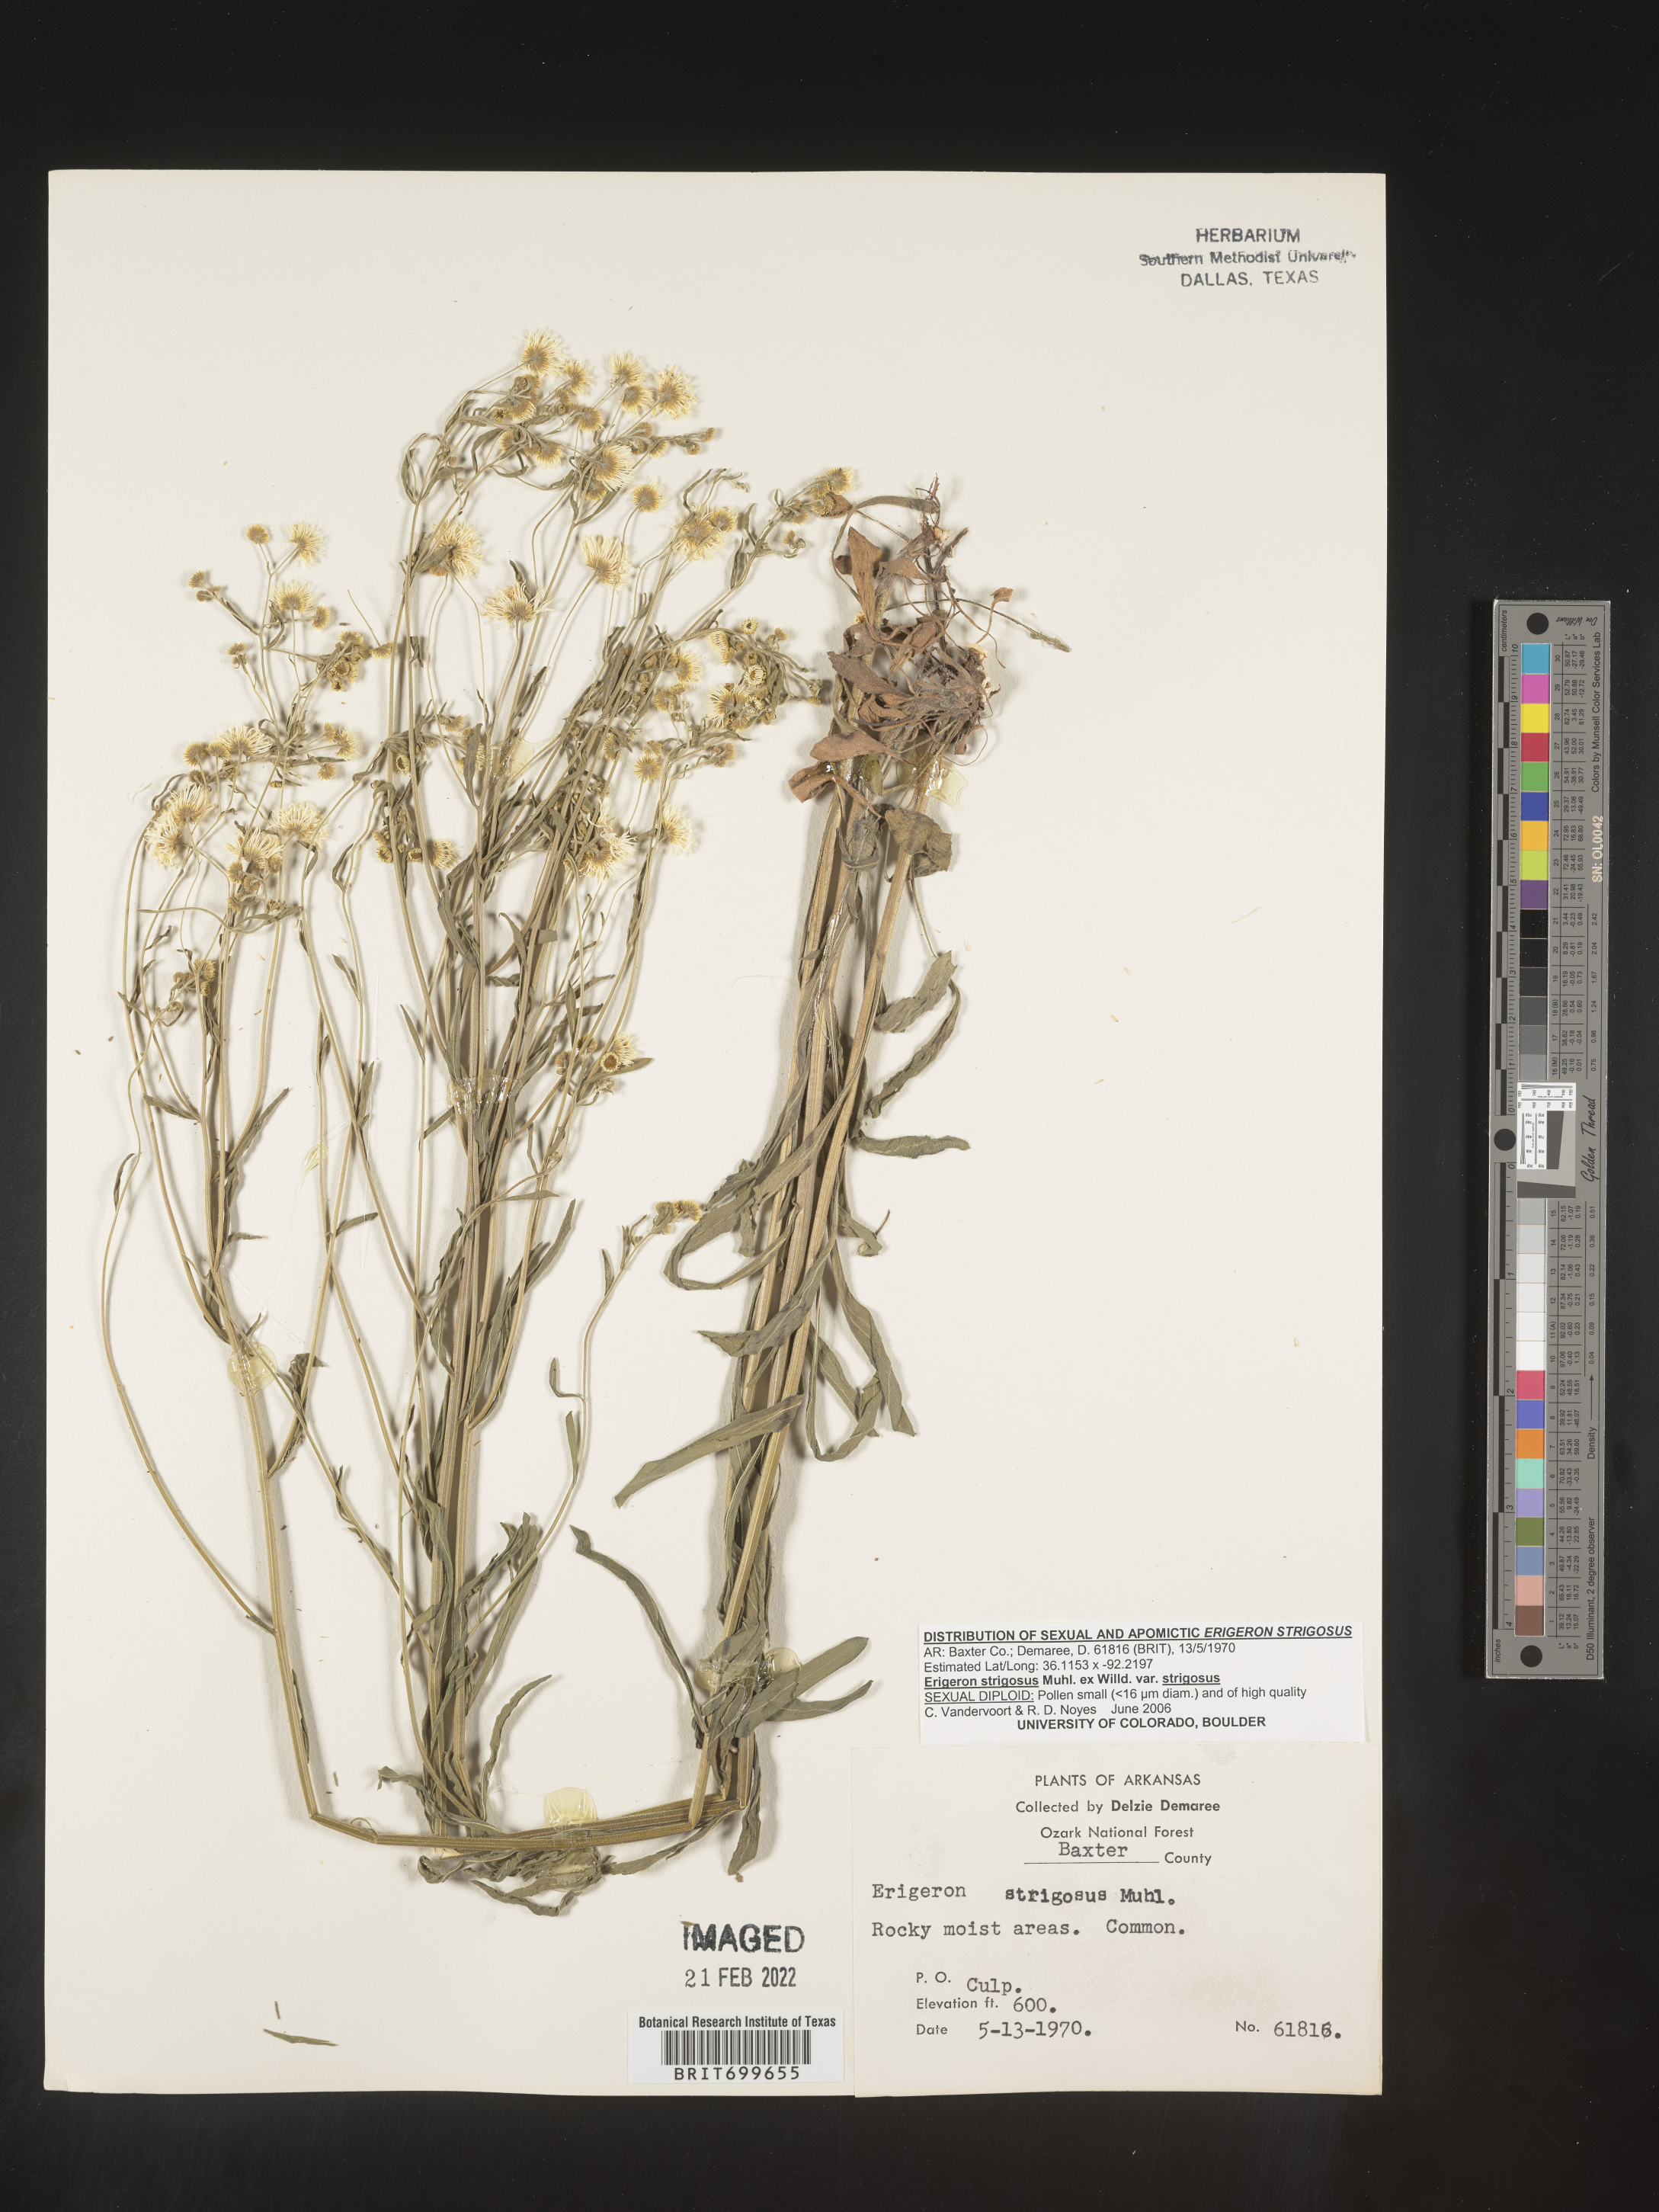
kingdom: Plantae
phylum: Tracheophyta
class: Magnoliopsida
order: Asterales
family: Asteraceae
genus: Erigeron
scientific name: Erigeron strigosus
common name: Common eastern fleabane
